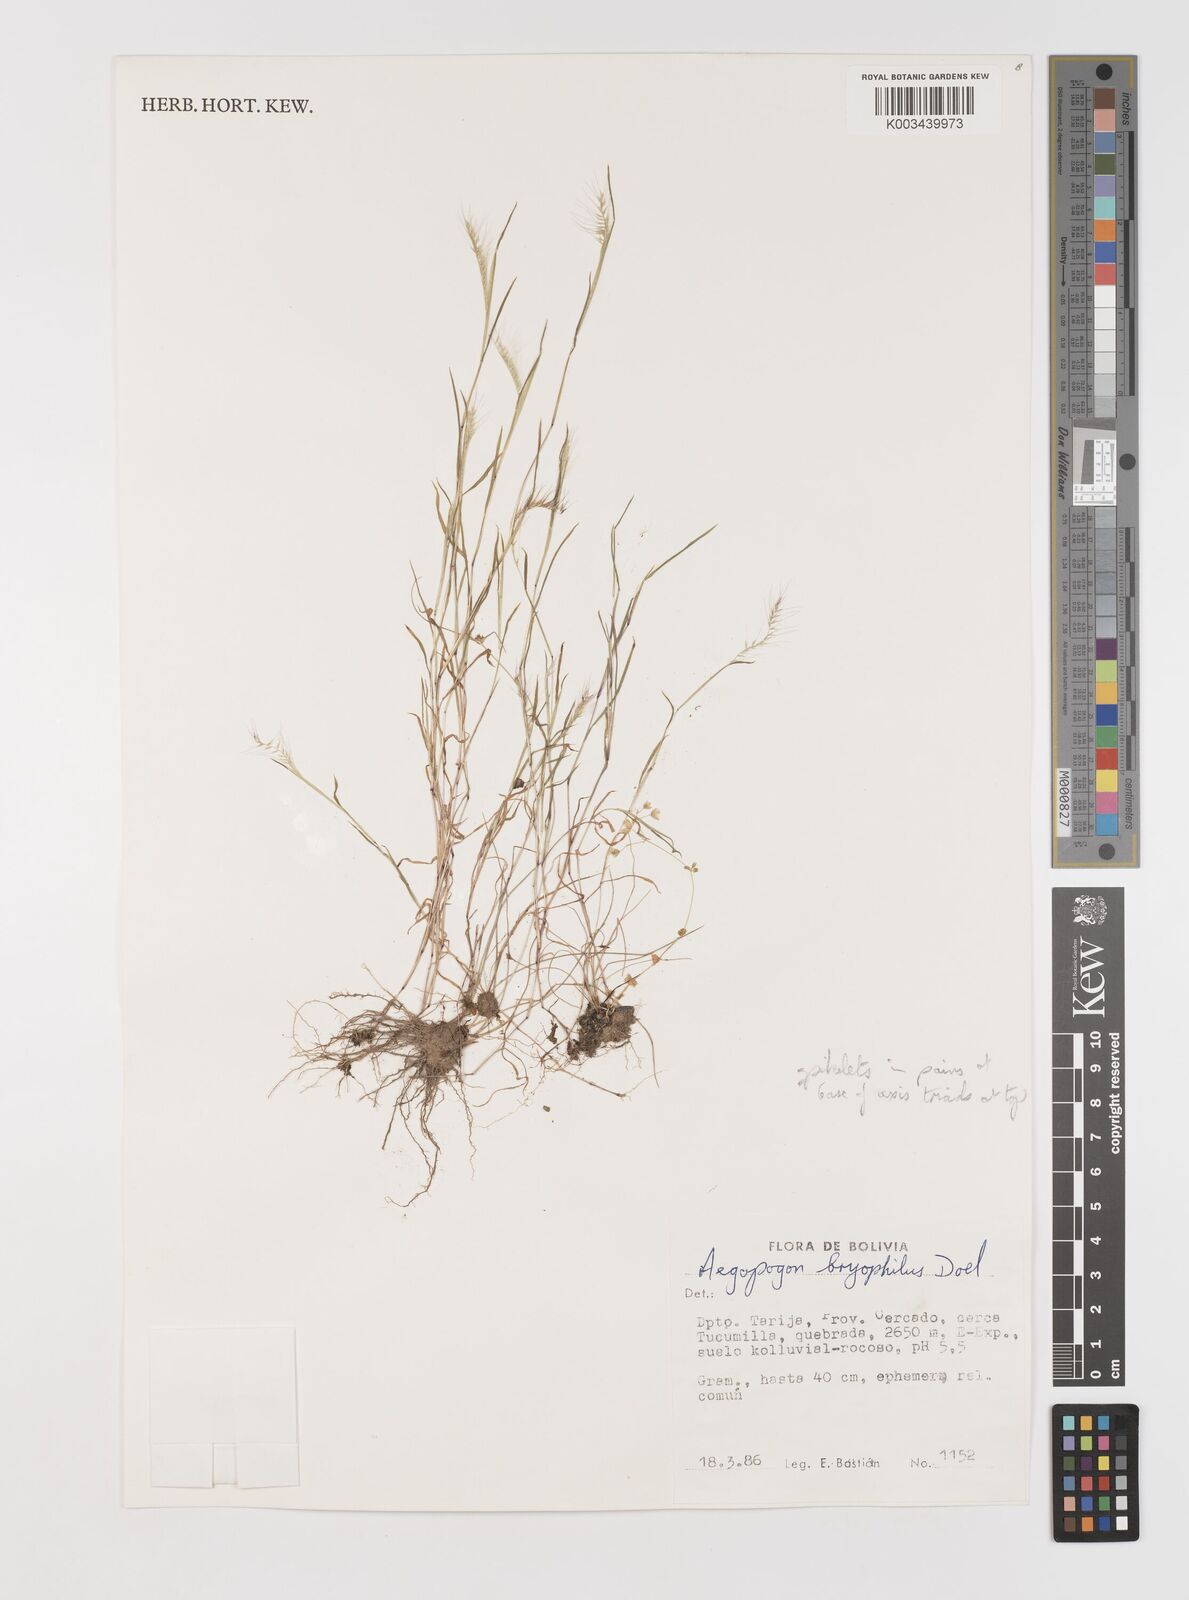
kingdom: Plantae
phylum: Tracheophyta
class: Liliopsida
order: Poales
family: Poaceae
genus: Muhlenbergia
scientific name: Muhlenbergia bryophilus
